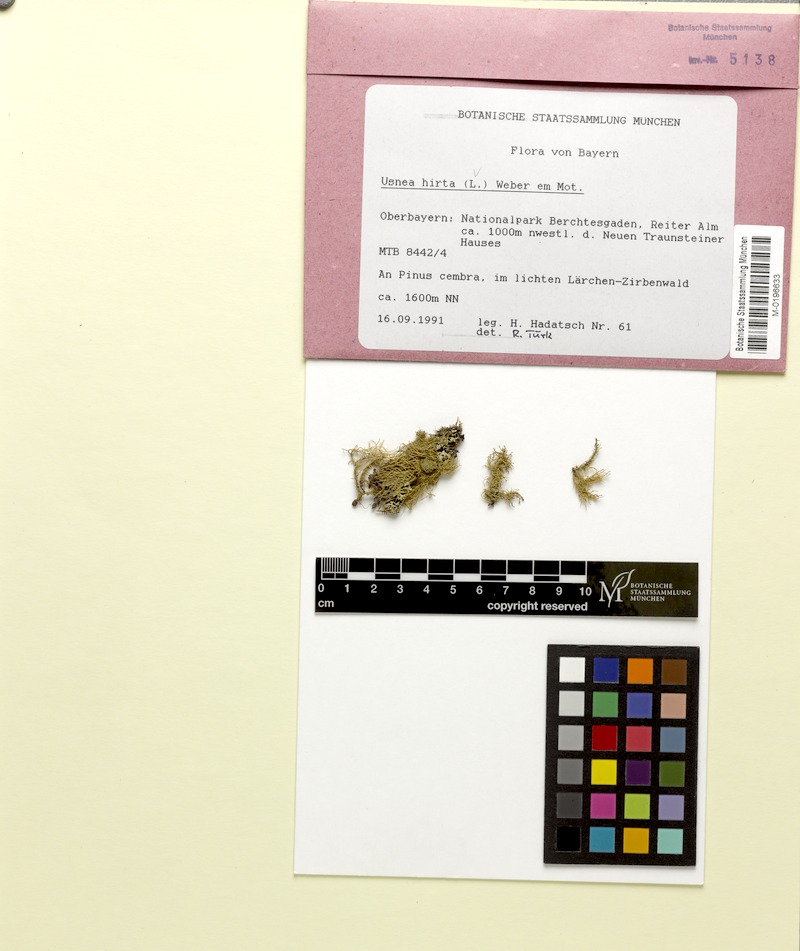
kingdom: Fungi
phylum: Ascomycota
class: Lecanoromycetes
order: Lecanorales
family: Parmeliaceae
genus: Usnea
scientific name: Usnea hirta
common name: Bristly beard lichen
